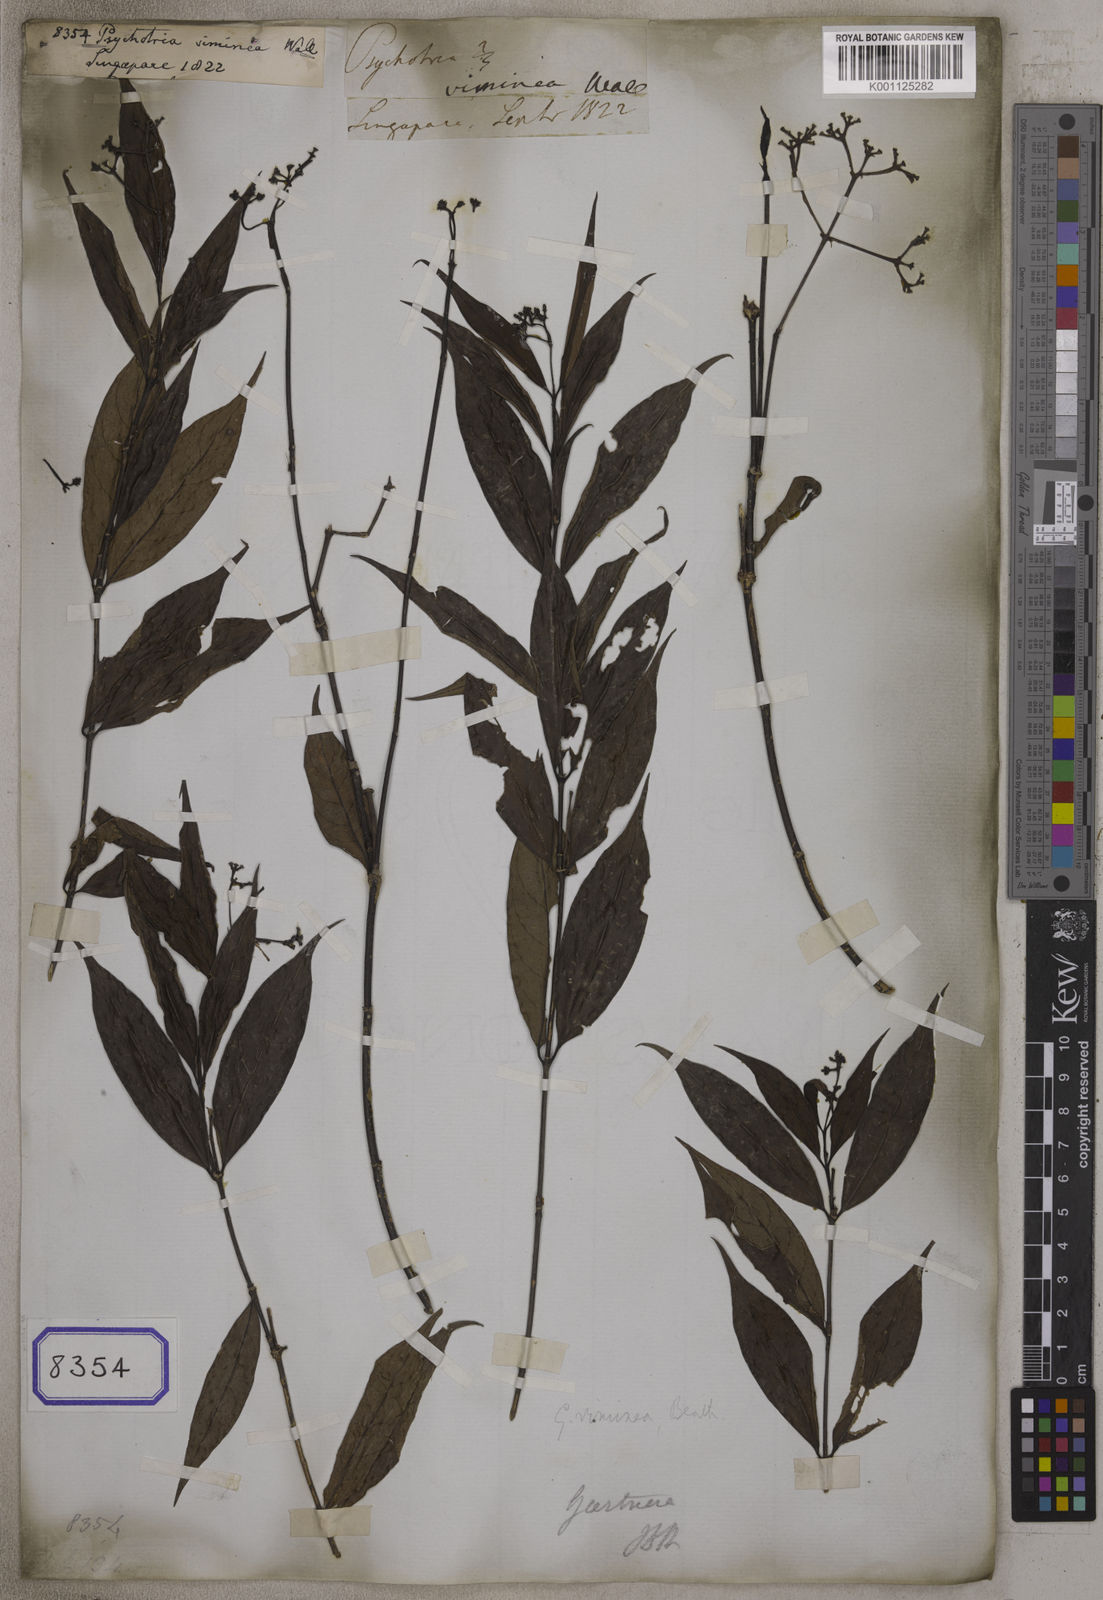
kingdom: Plantae
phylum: Tracheophyta
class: Magnoliopsida
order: Gentianales
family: Rubiaceae
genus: Gaertnera
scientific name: Gaertnera viminea
